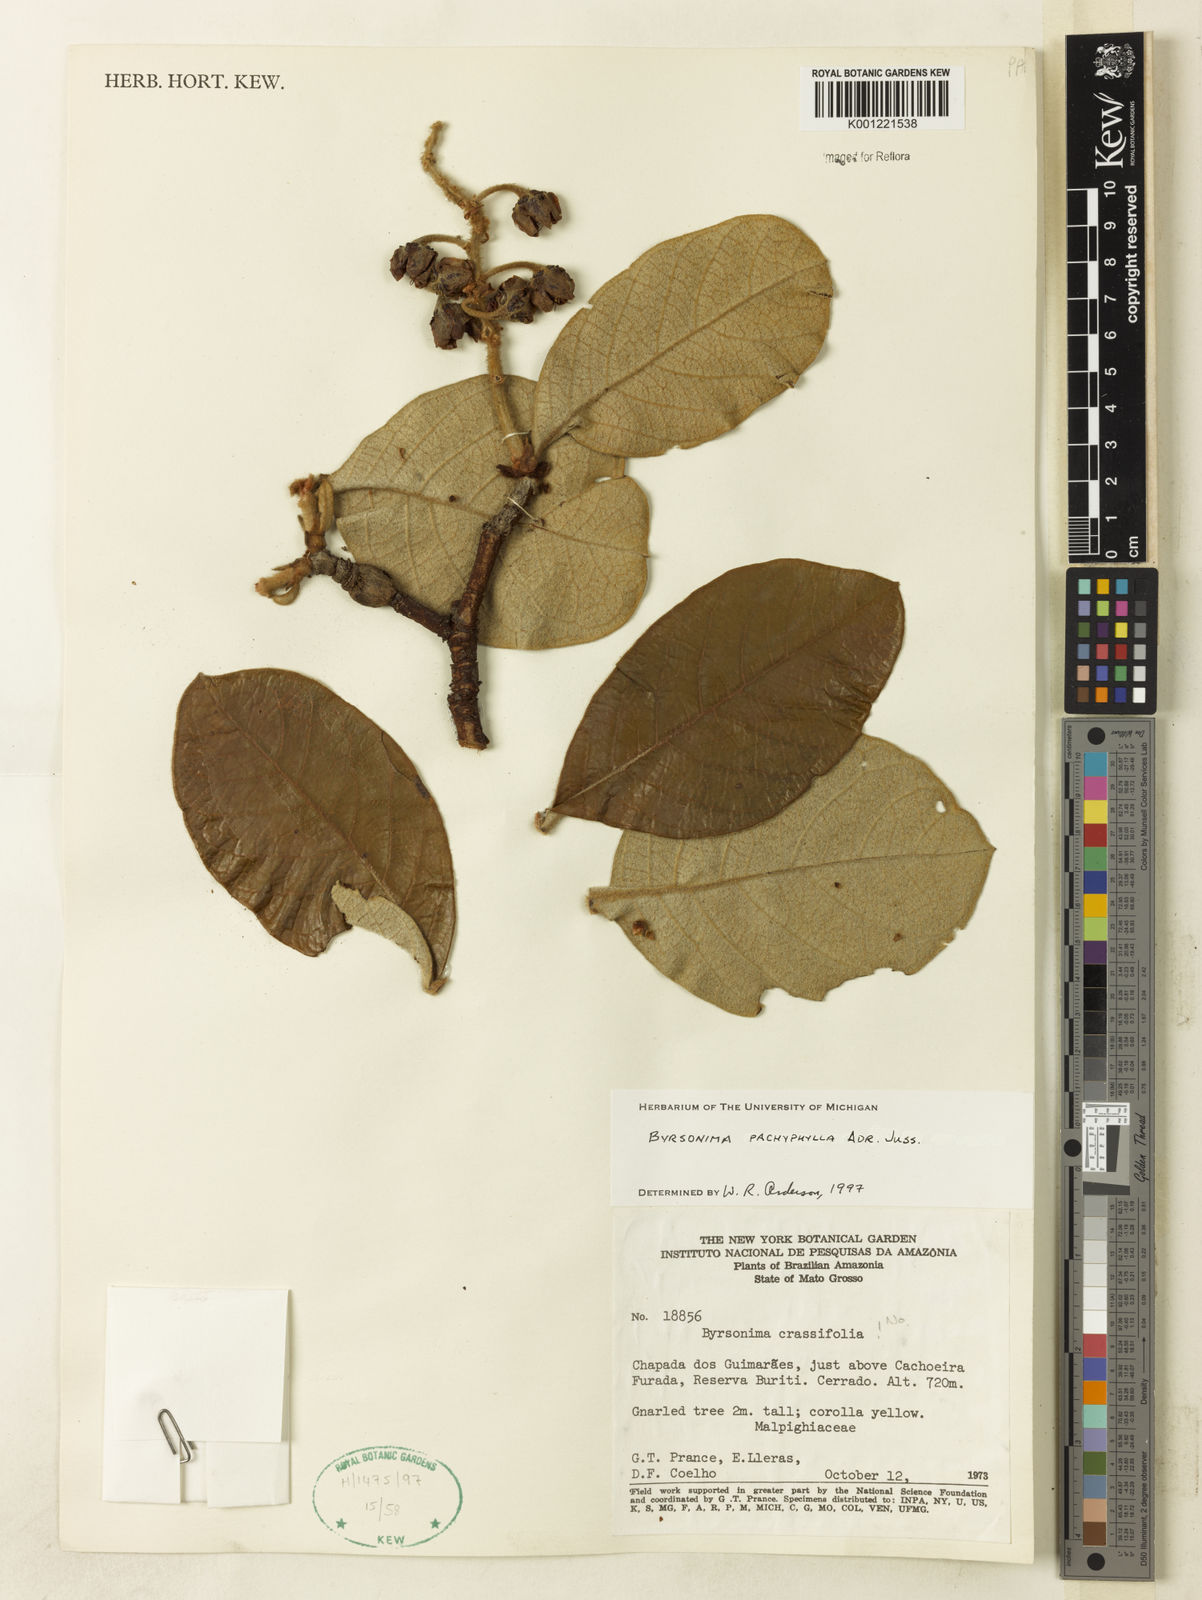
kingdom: Plantae
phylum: Tracheophyta
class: Magnoliopsida
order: Malpighiales
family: Malpighiaceae
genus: Byrsonima
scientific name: Byrsonima pachyphylla
